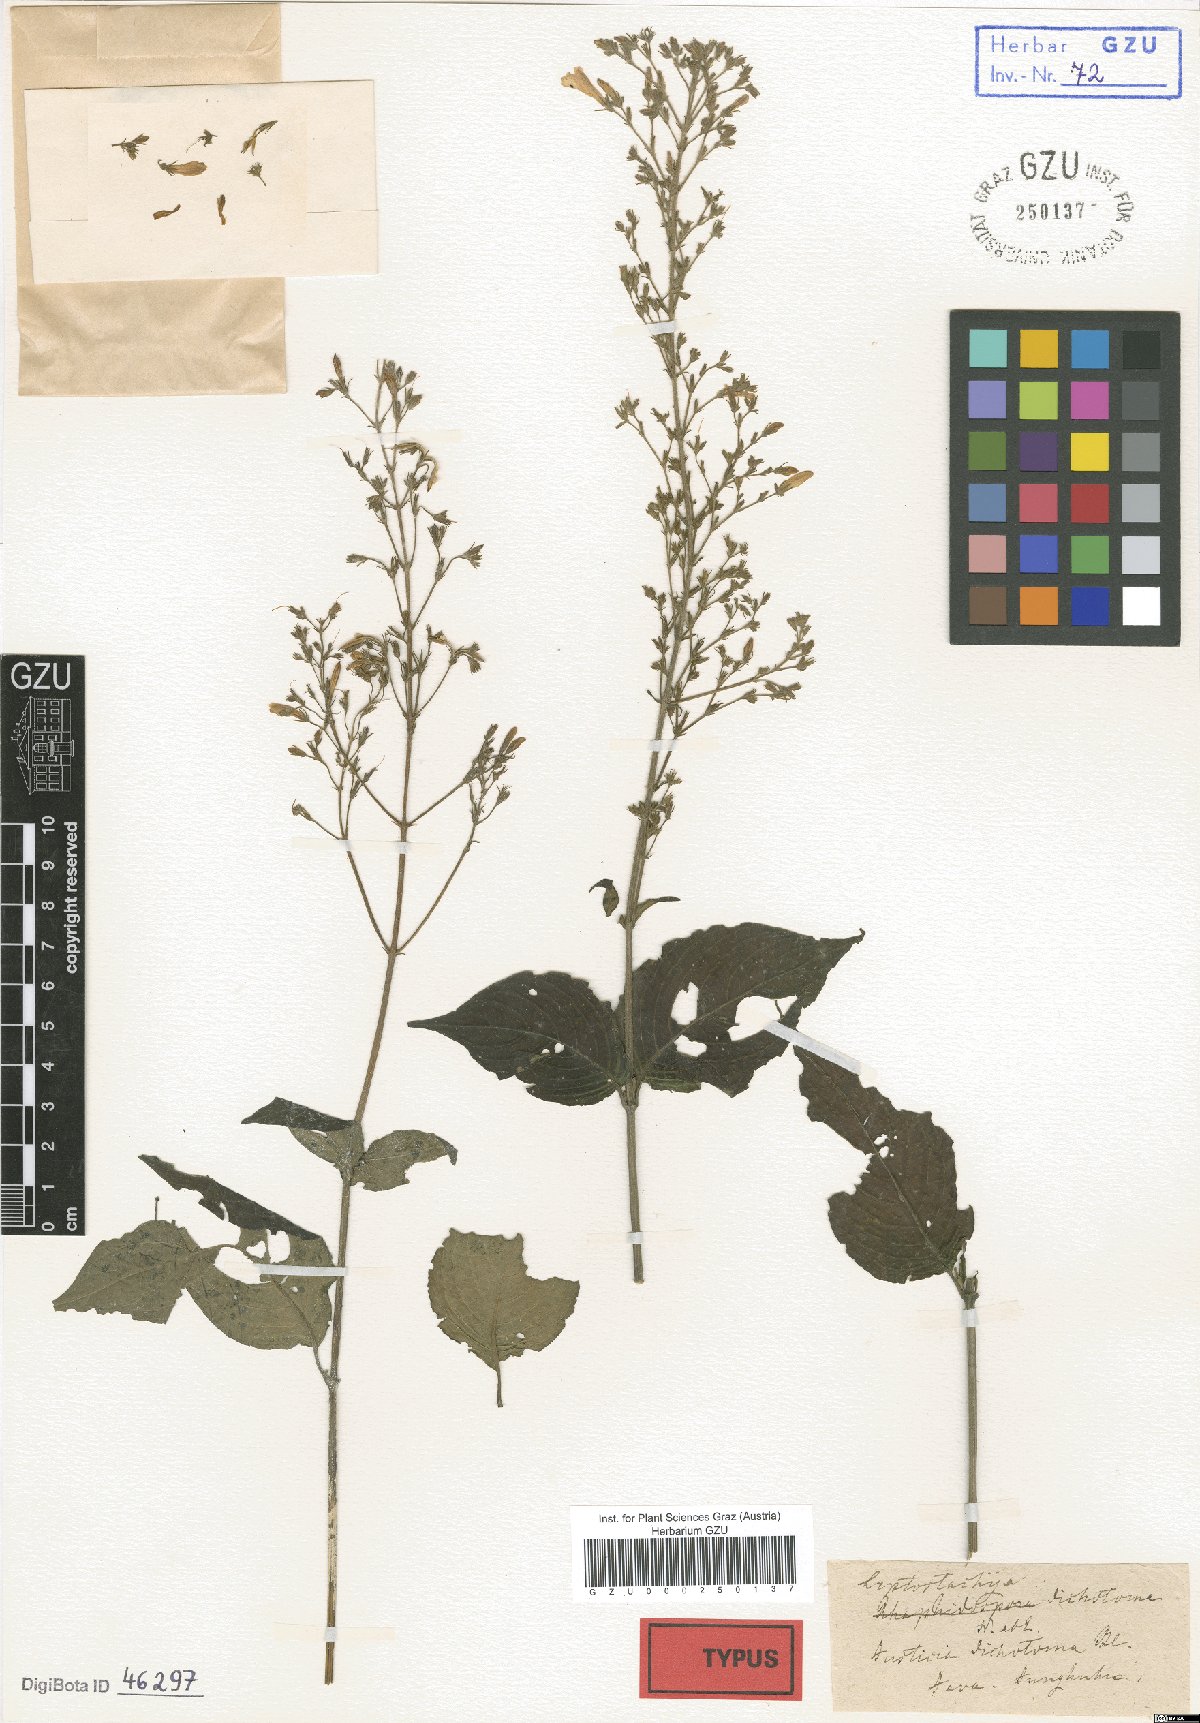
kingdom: Plantae
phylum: Tracheophyta
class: Magnoliopsida
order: Lamiales
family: Acanthaceae
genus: Isoglossa
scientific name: Isoglossa dichotoma
